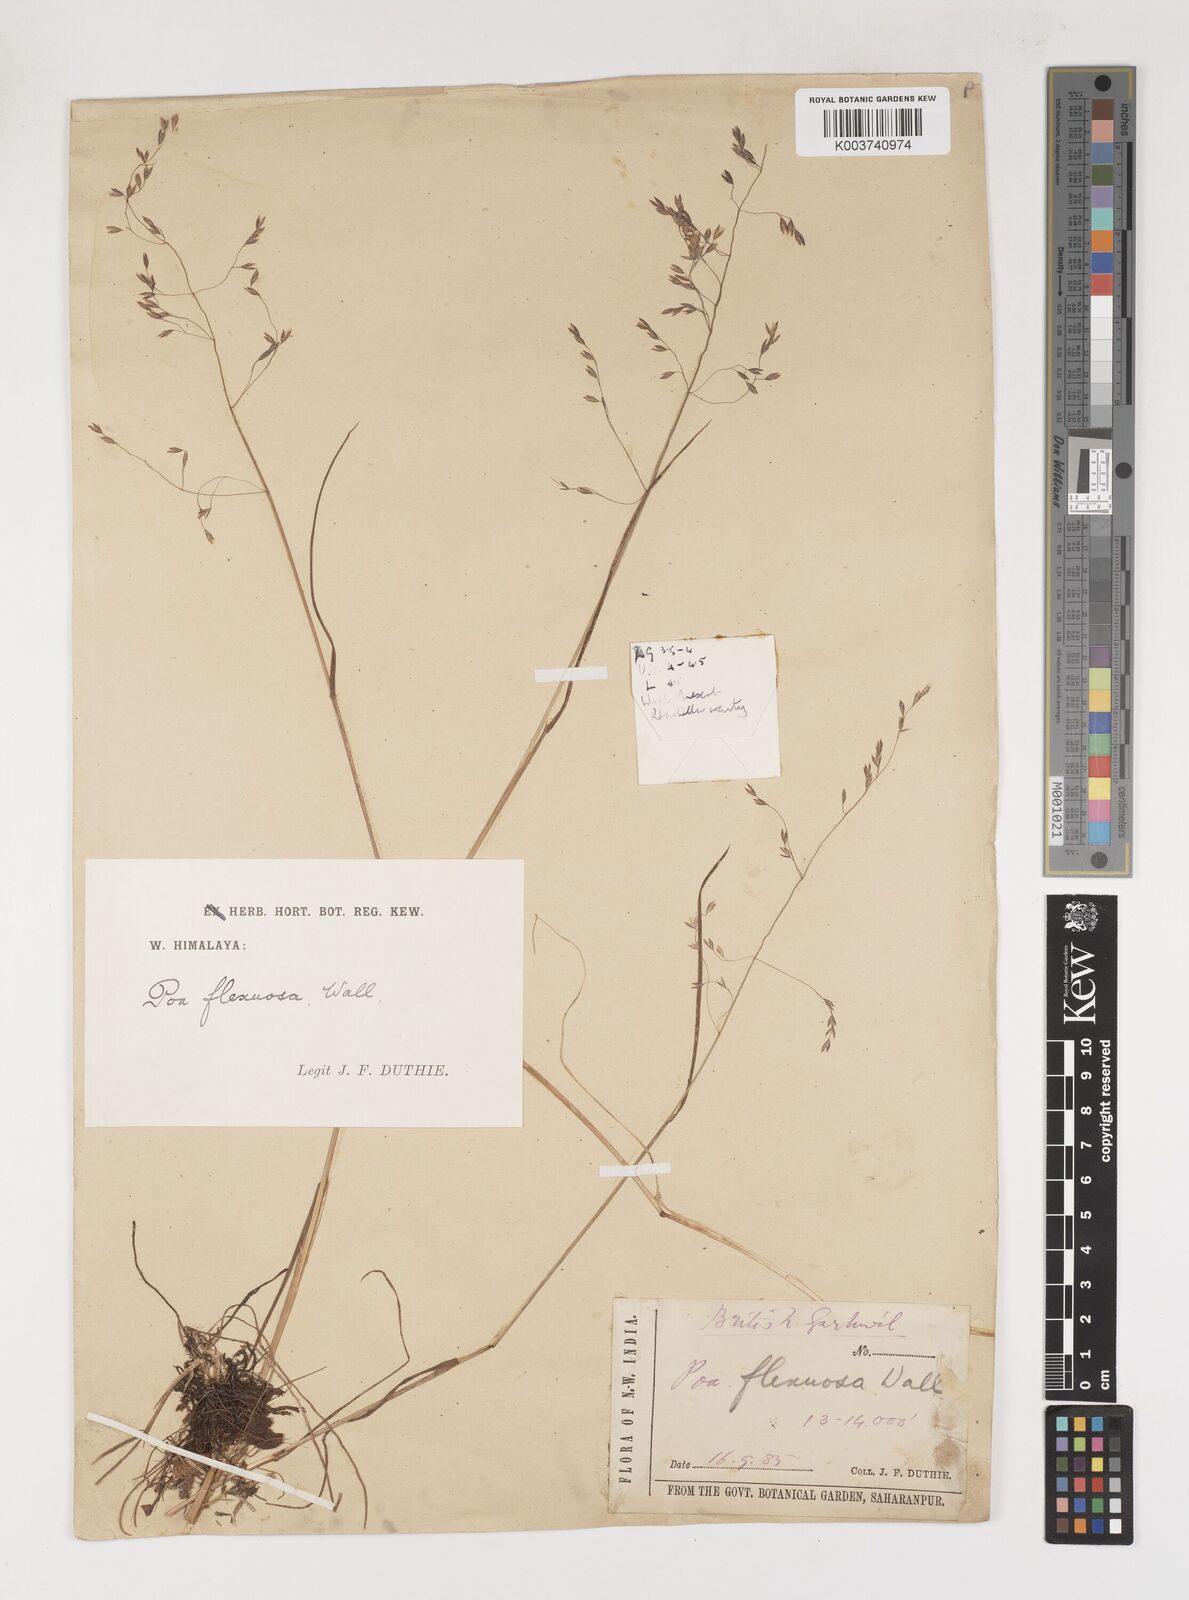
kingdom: Plantae
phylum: Tracheophyta
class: Liliopsida
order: Poales
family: Poaceae
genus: Poa
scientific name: Poa pagophila
